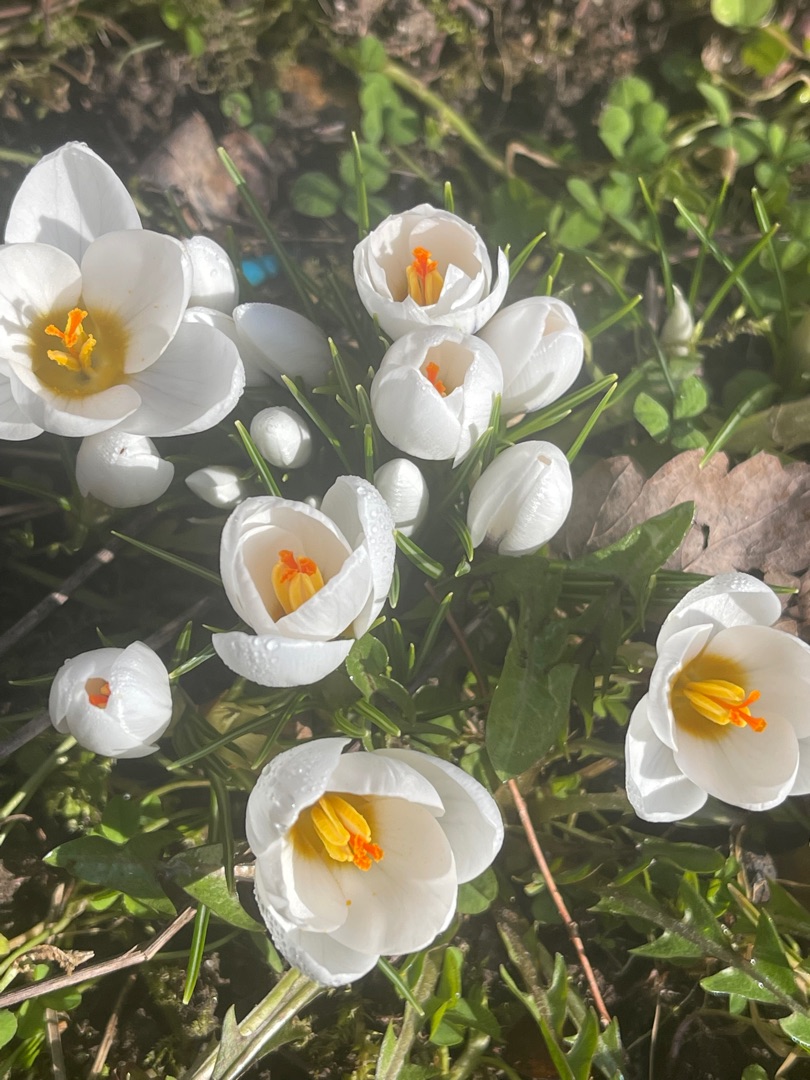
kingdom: Plantae
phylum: Tracheophyta
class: Liliopsida
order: Asparagales
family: Iridaceae
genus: Crocus
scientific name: Crocus vernus
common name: Vår-krokus
